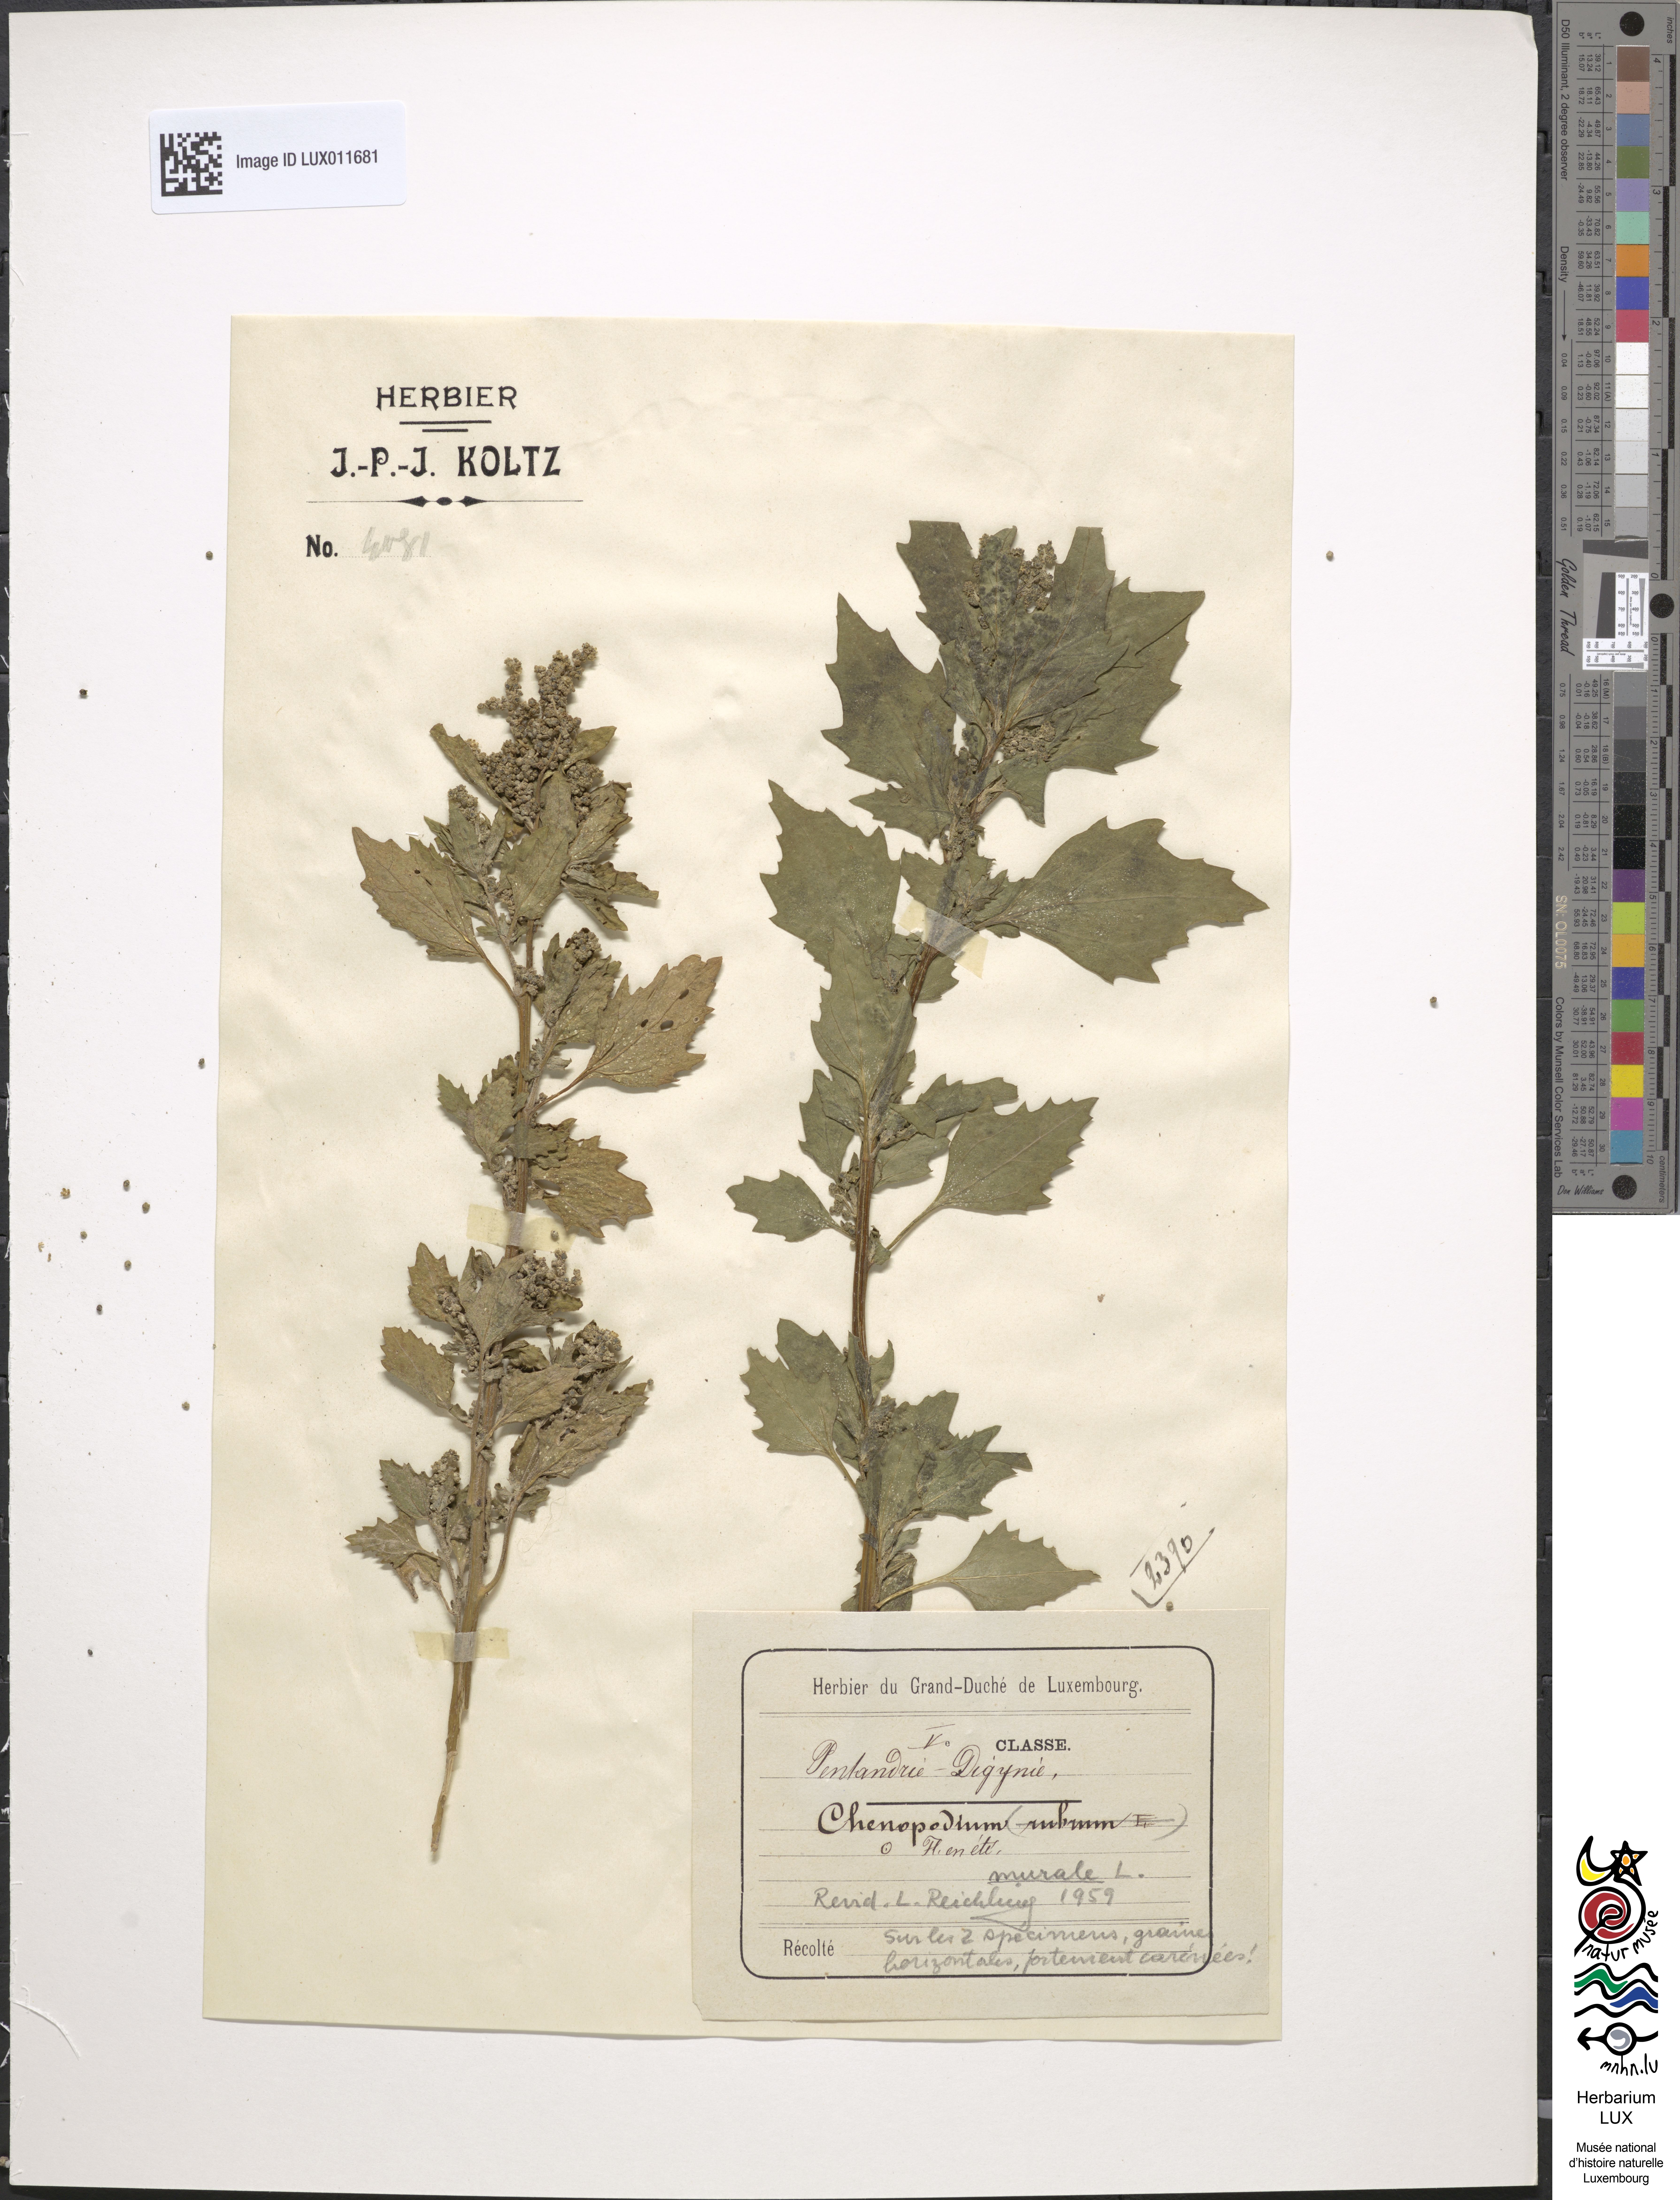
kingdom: Plantae
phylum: Tracheophyta
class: Magnoliopsida
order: Caryophyllales
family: Amaranthaceae
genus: Oxybasis
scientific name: Oxybasis glauca
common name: Glaucous goosefoot
